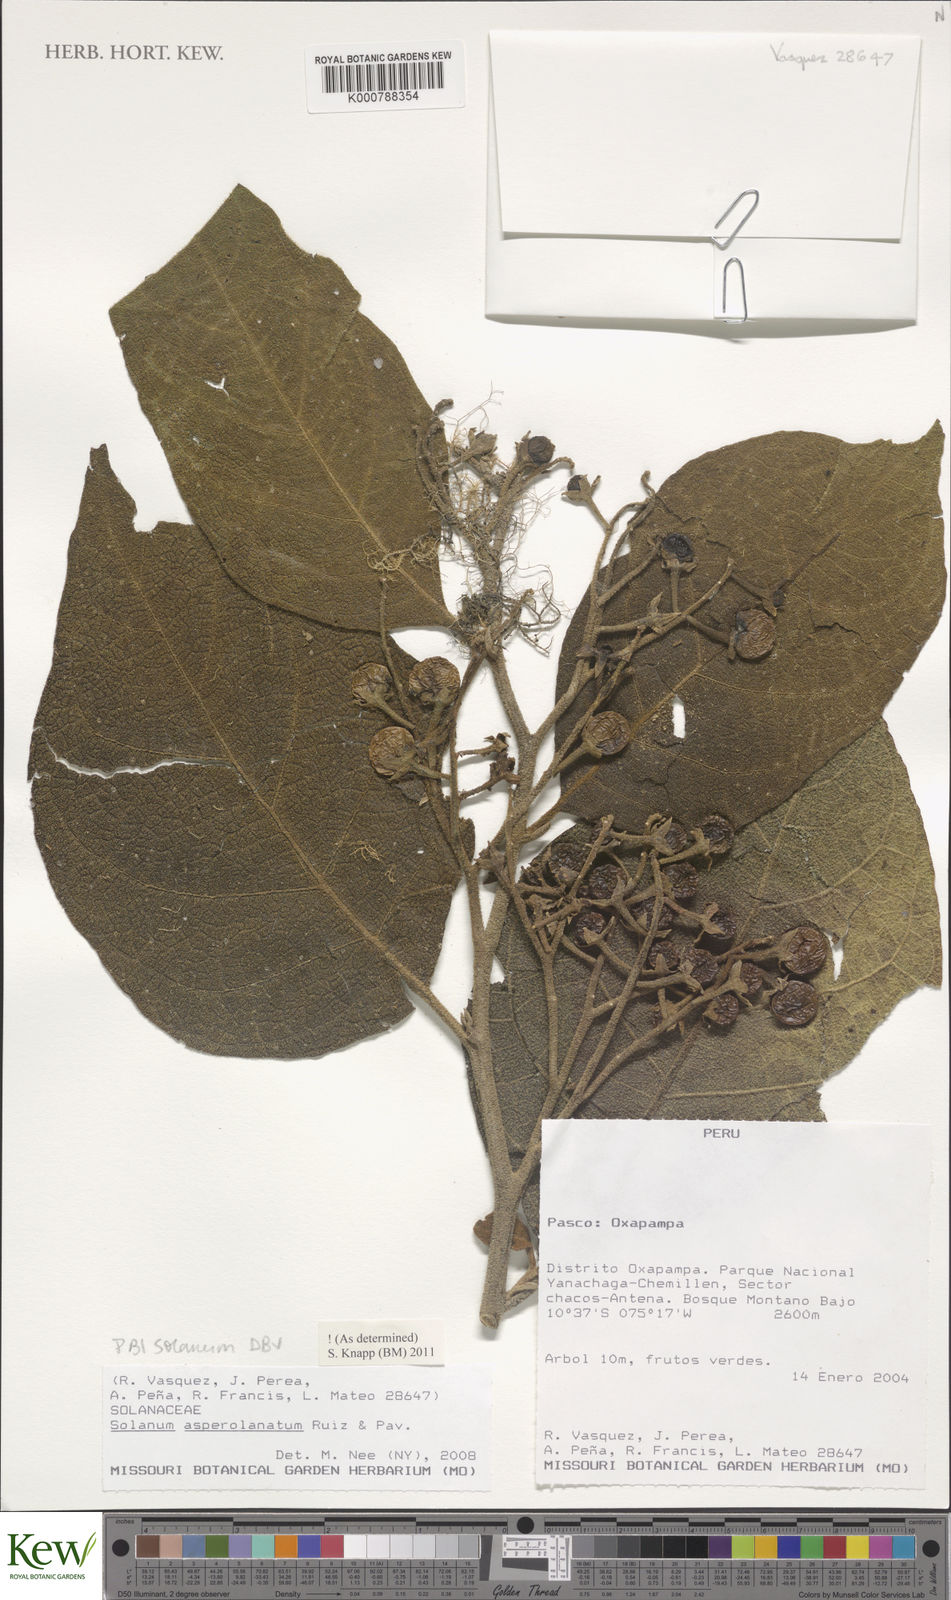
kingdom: Plantae
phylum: Tracheophyta
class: Magnoliopsida
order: Solanales
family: Solanaceae
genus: Solanum
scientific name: Solanum asperolanatum
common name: Devil's-fig
